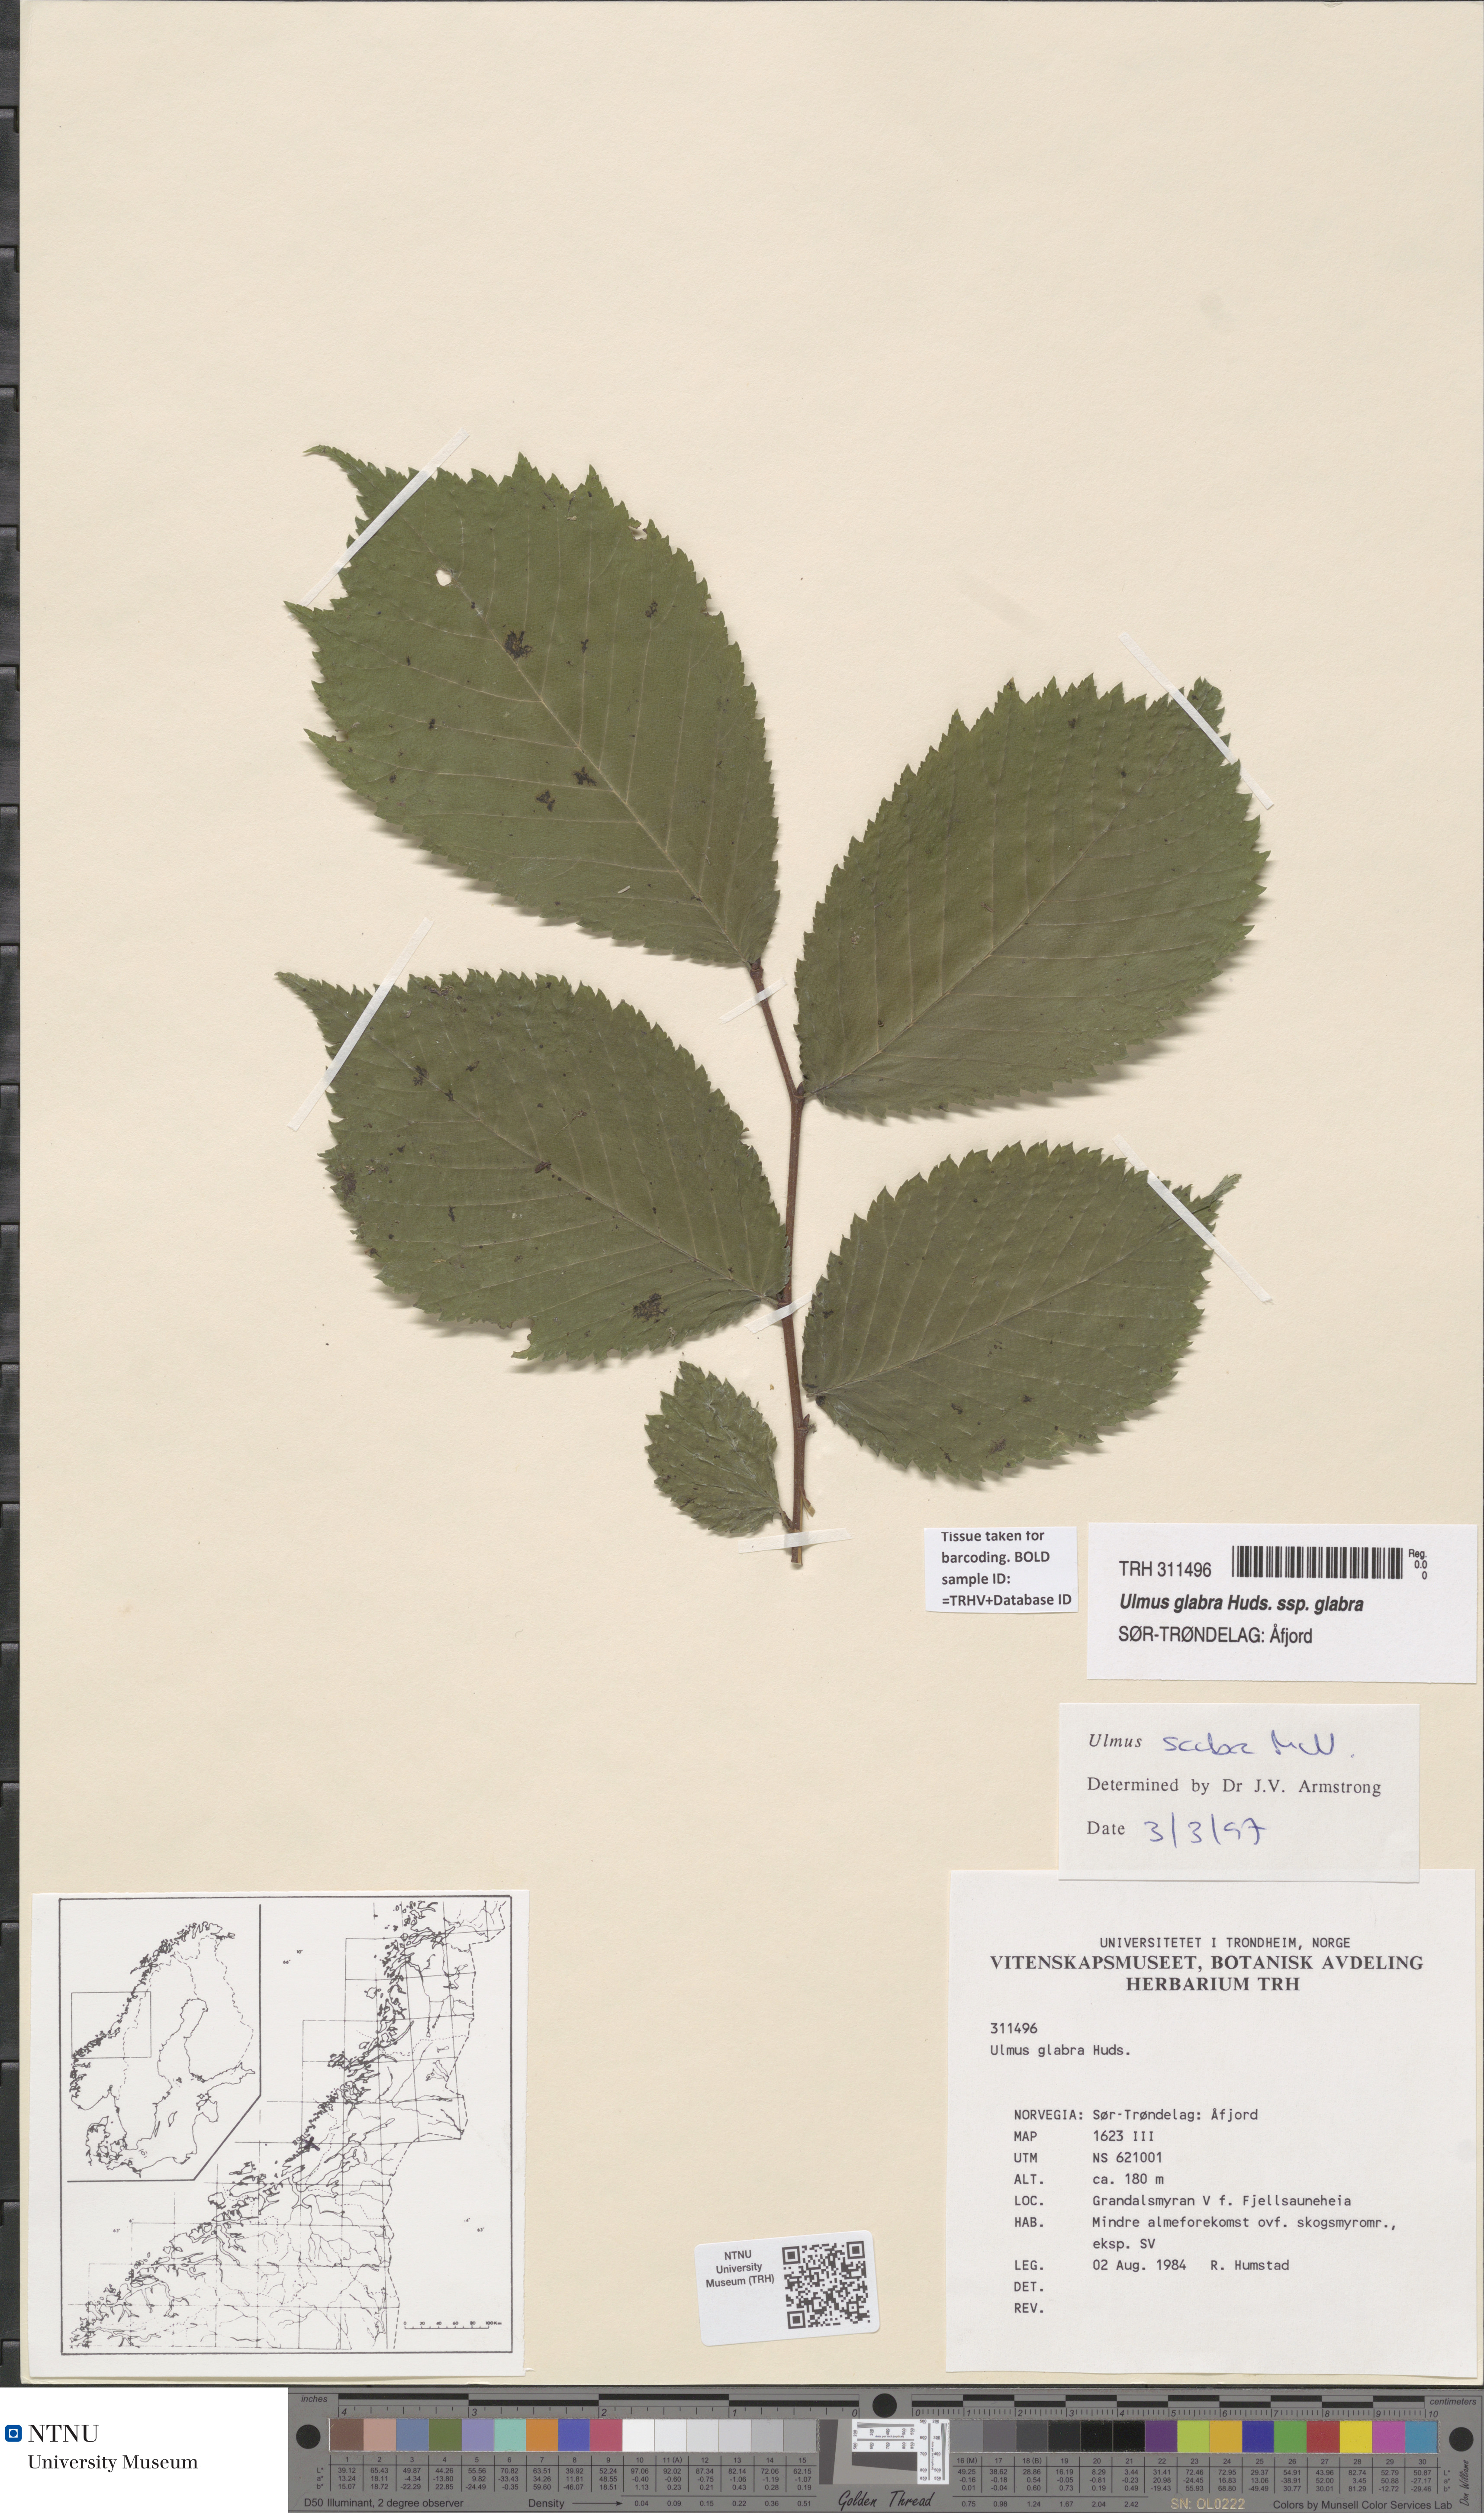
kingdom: Plantae
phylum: Tracheophyta
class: Magnoliopsida
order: Rosales
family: Ulmaceae
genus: Ulmus
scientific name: Ulmus glabra
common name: Wych elm
